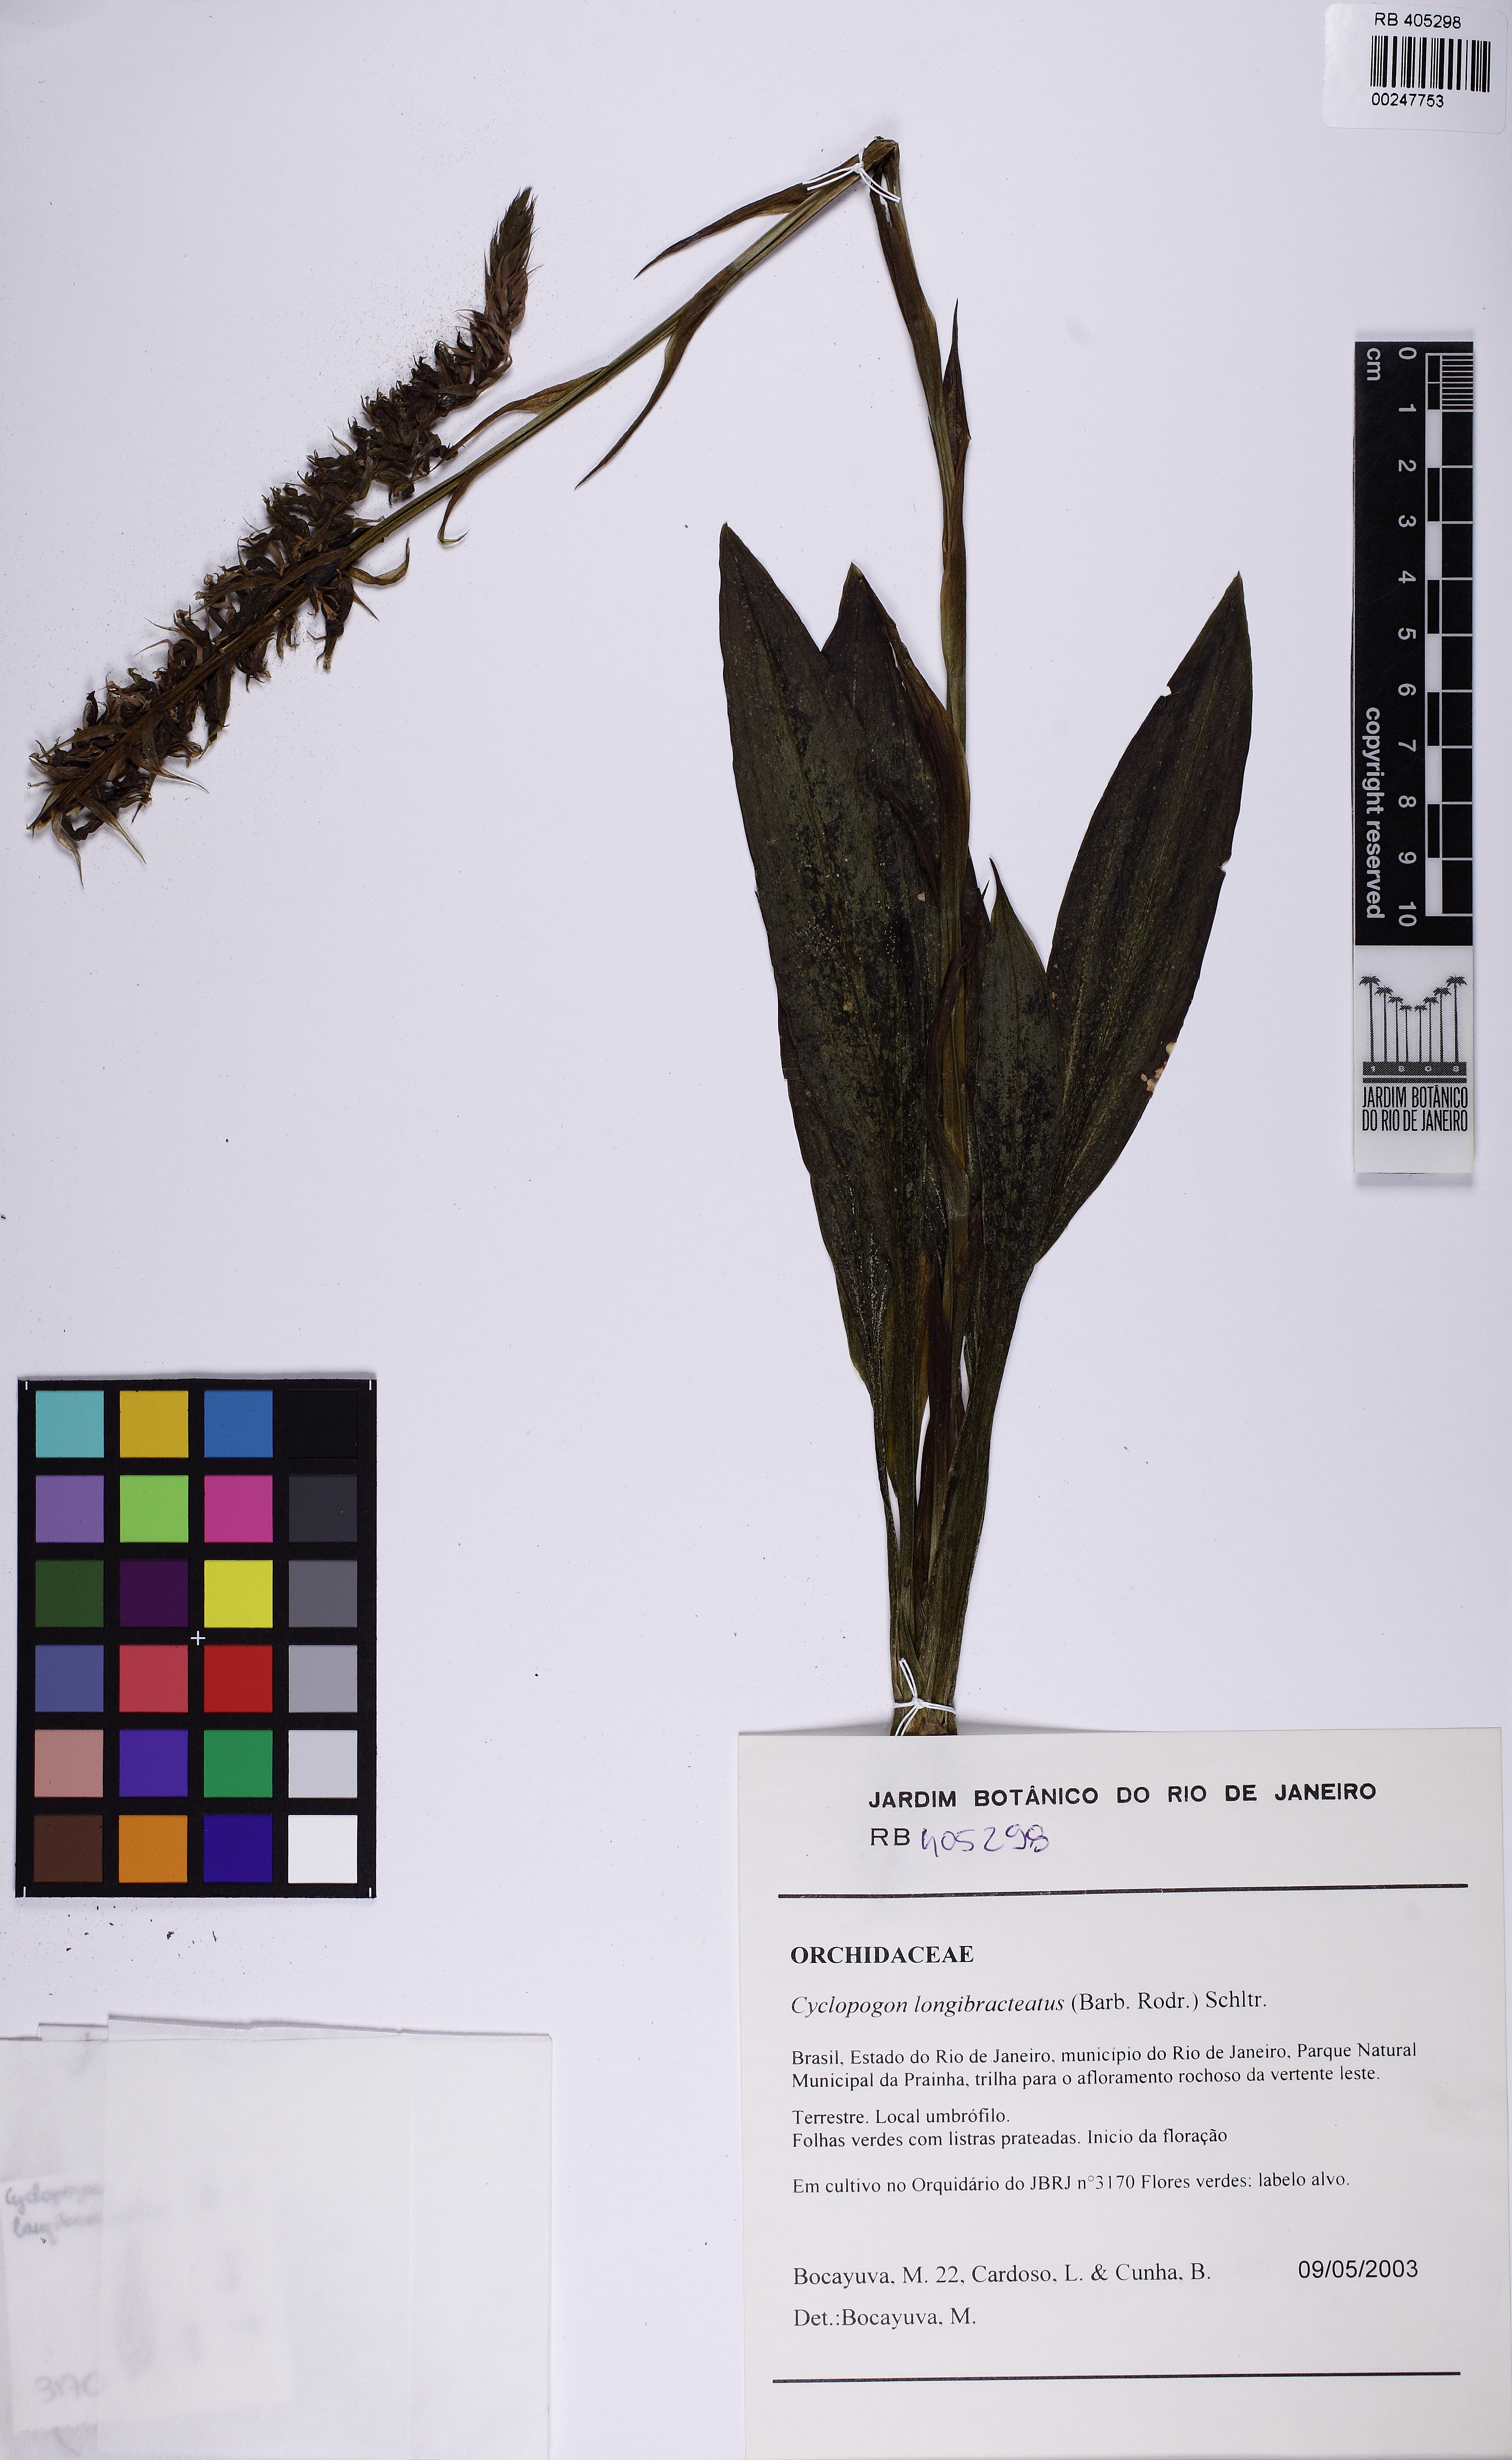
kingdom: Plantae
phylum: Tracheophyta
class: Liliopsida
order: Asparagales
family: Orchidaceae
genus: Cyclopogon
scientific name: Cyclopogon longibracteatus
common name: Long bracted cyclopogon
